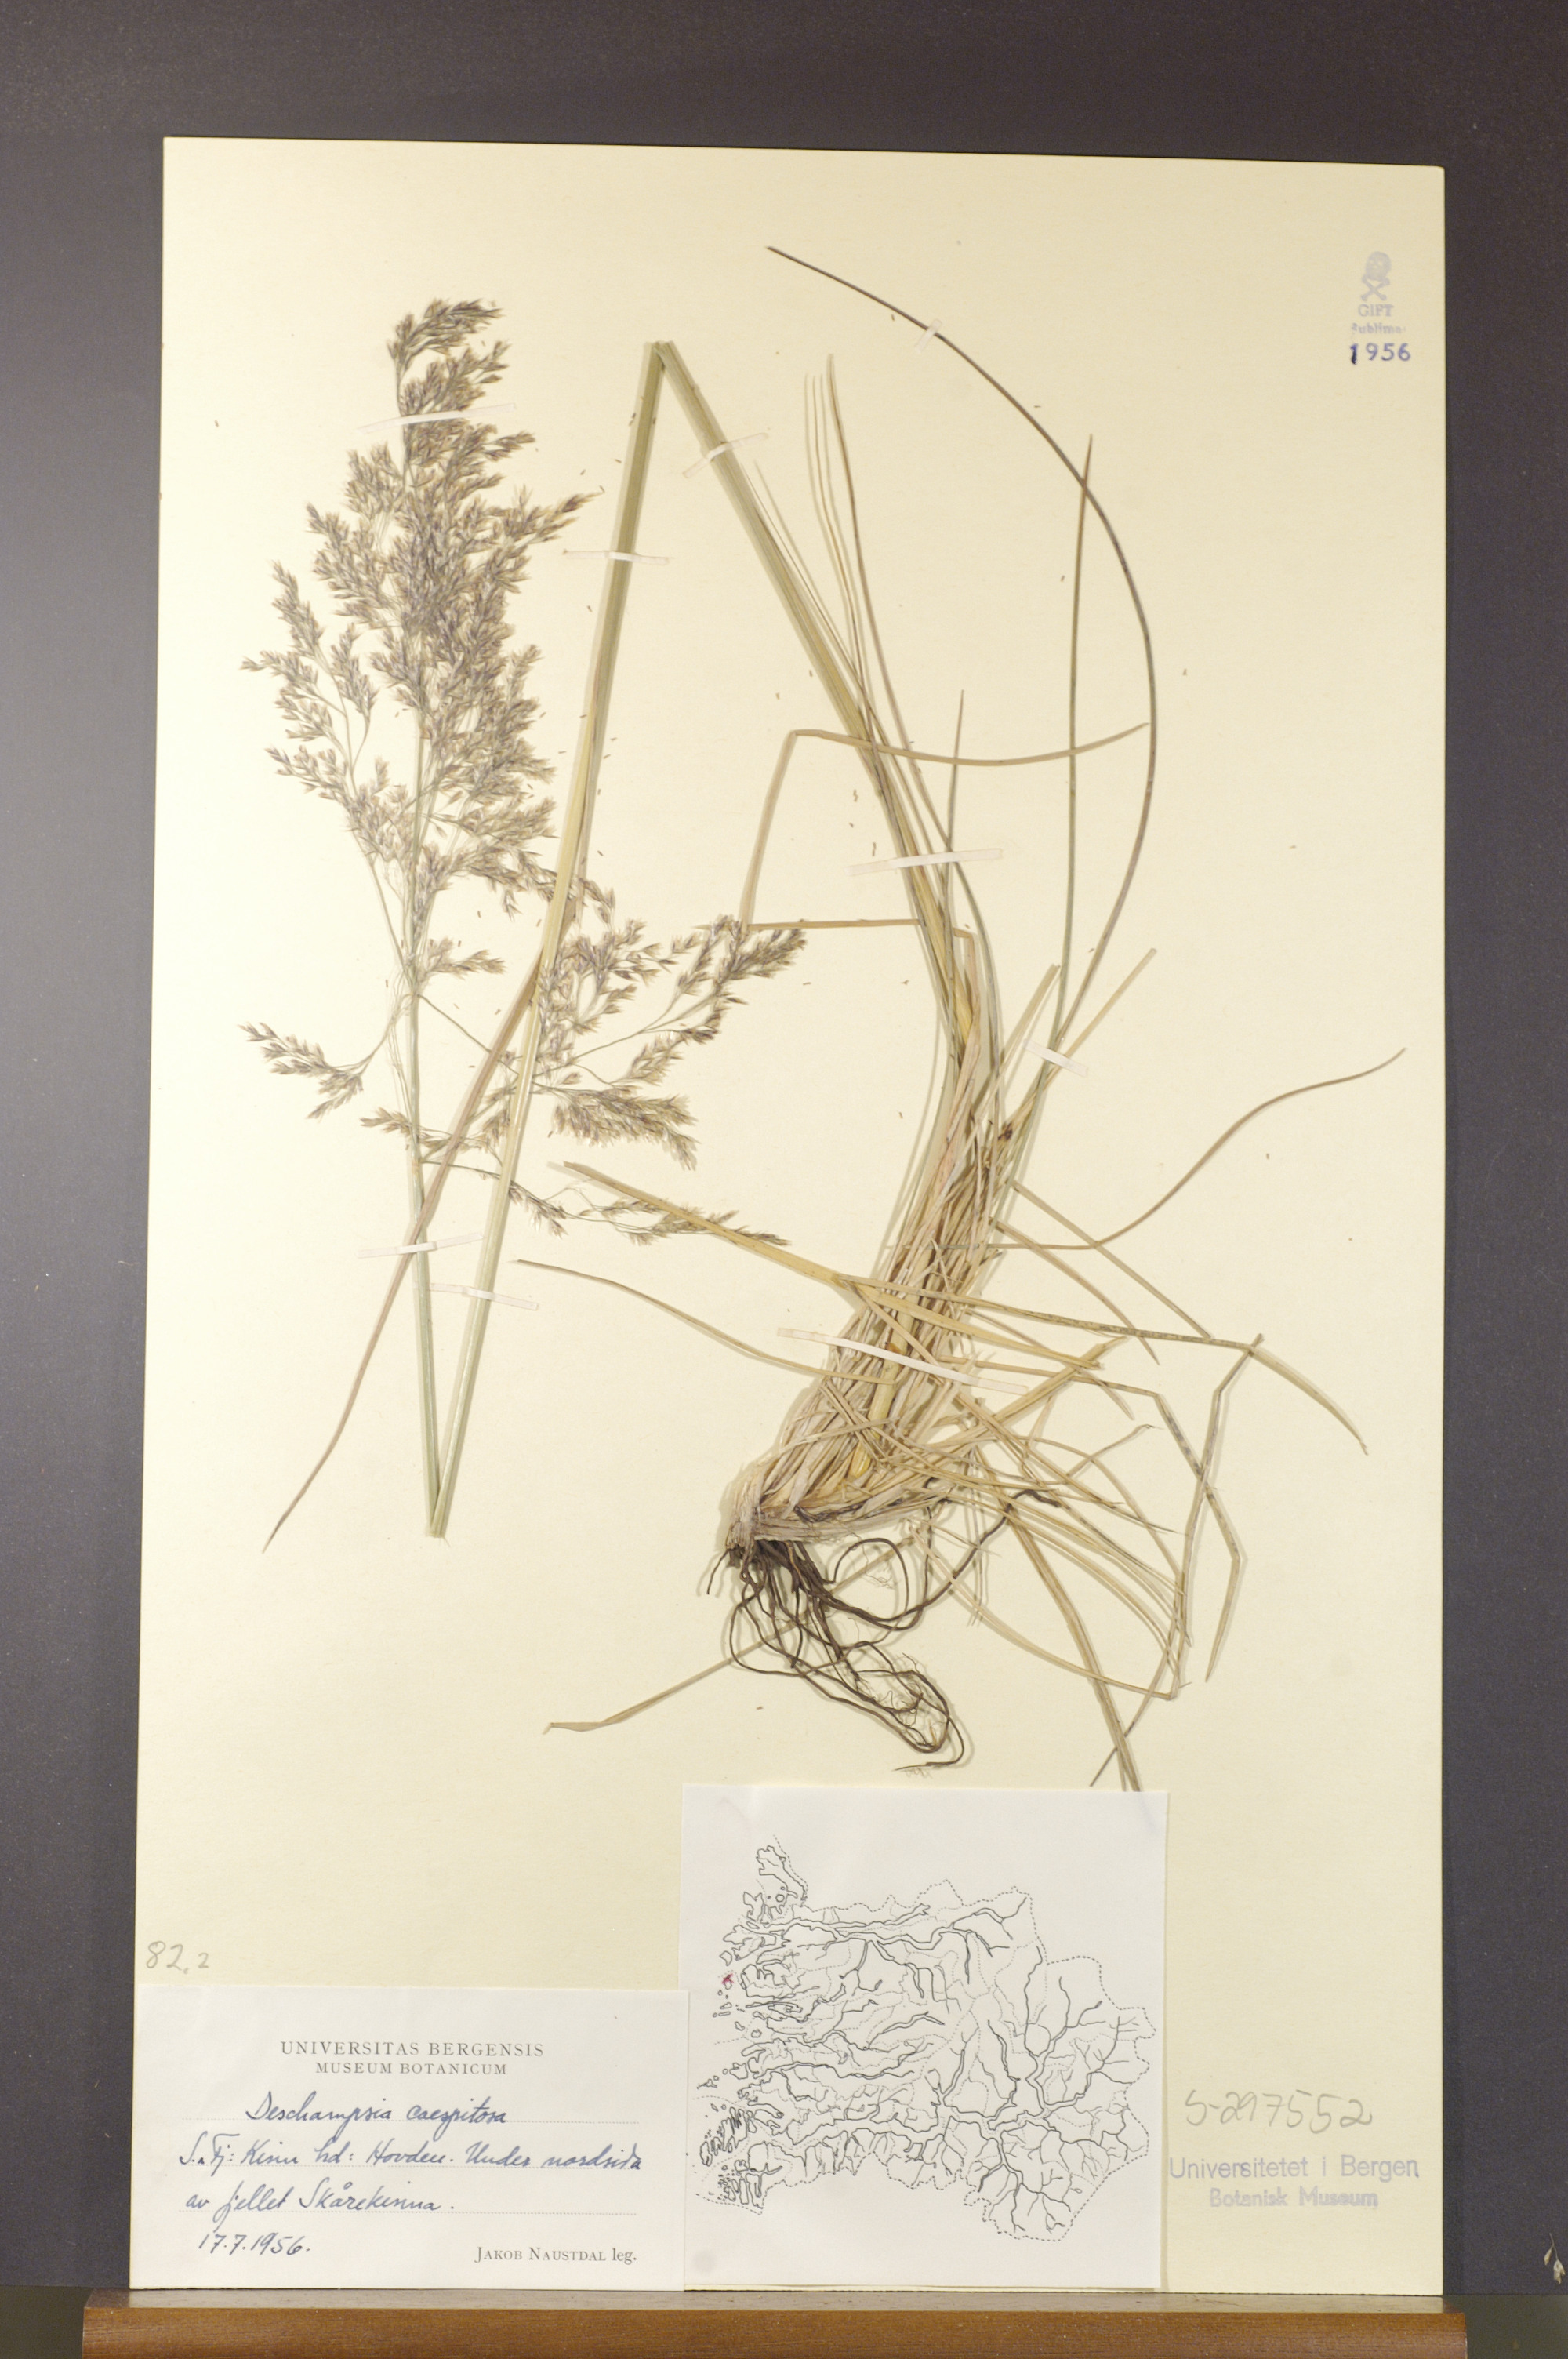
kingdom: Plantae
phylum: Tracheophyta
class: Liliopsida
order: Poales
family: Poaceae
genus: Deschampsia
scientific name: Deschampsia cespitosa
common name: Tufted hair-grass
